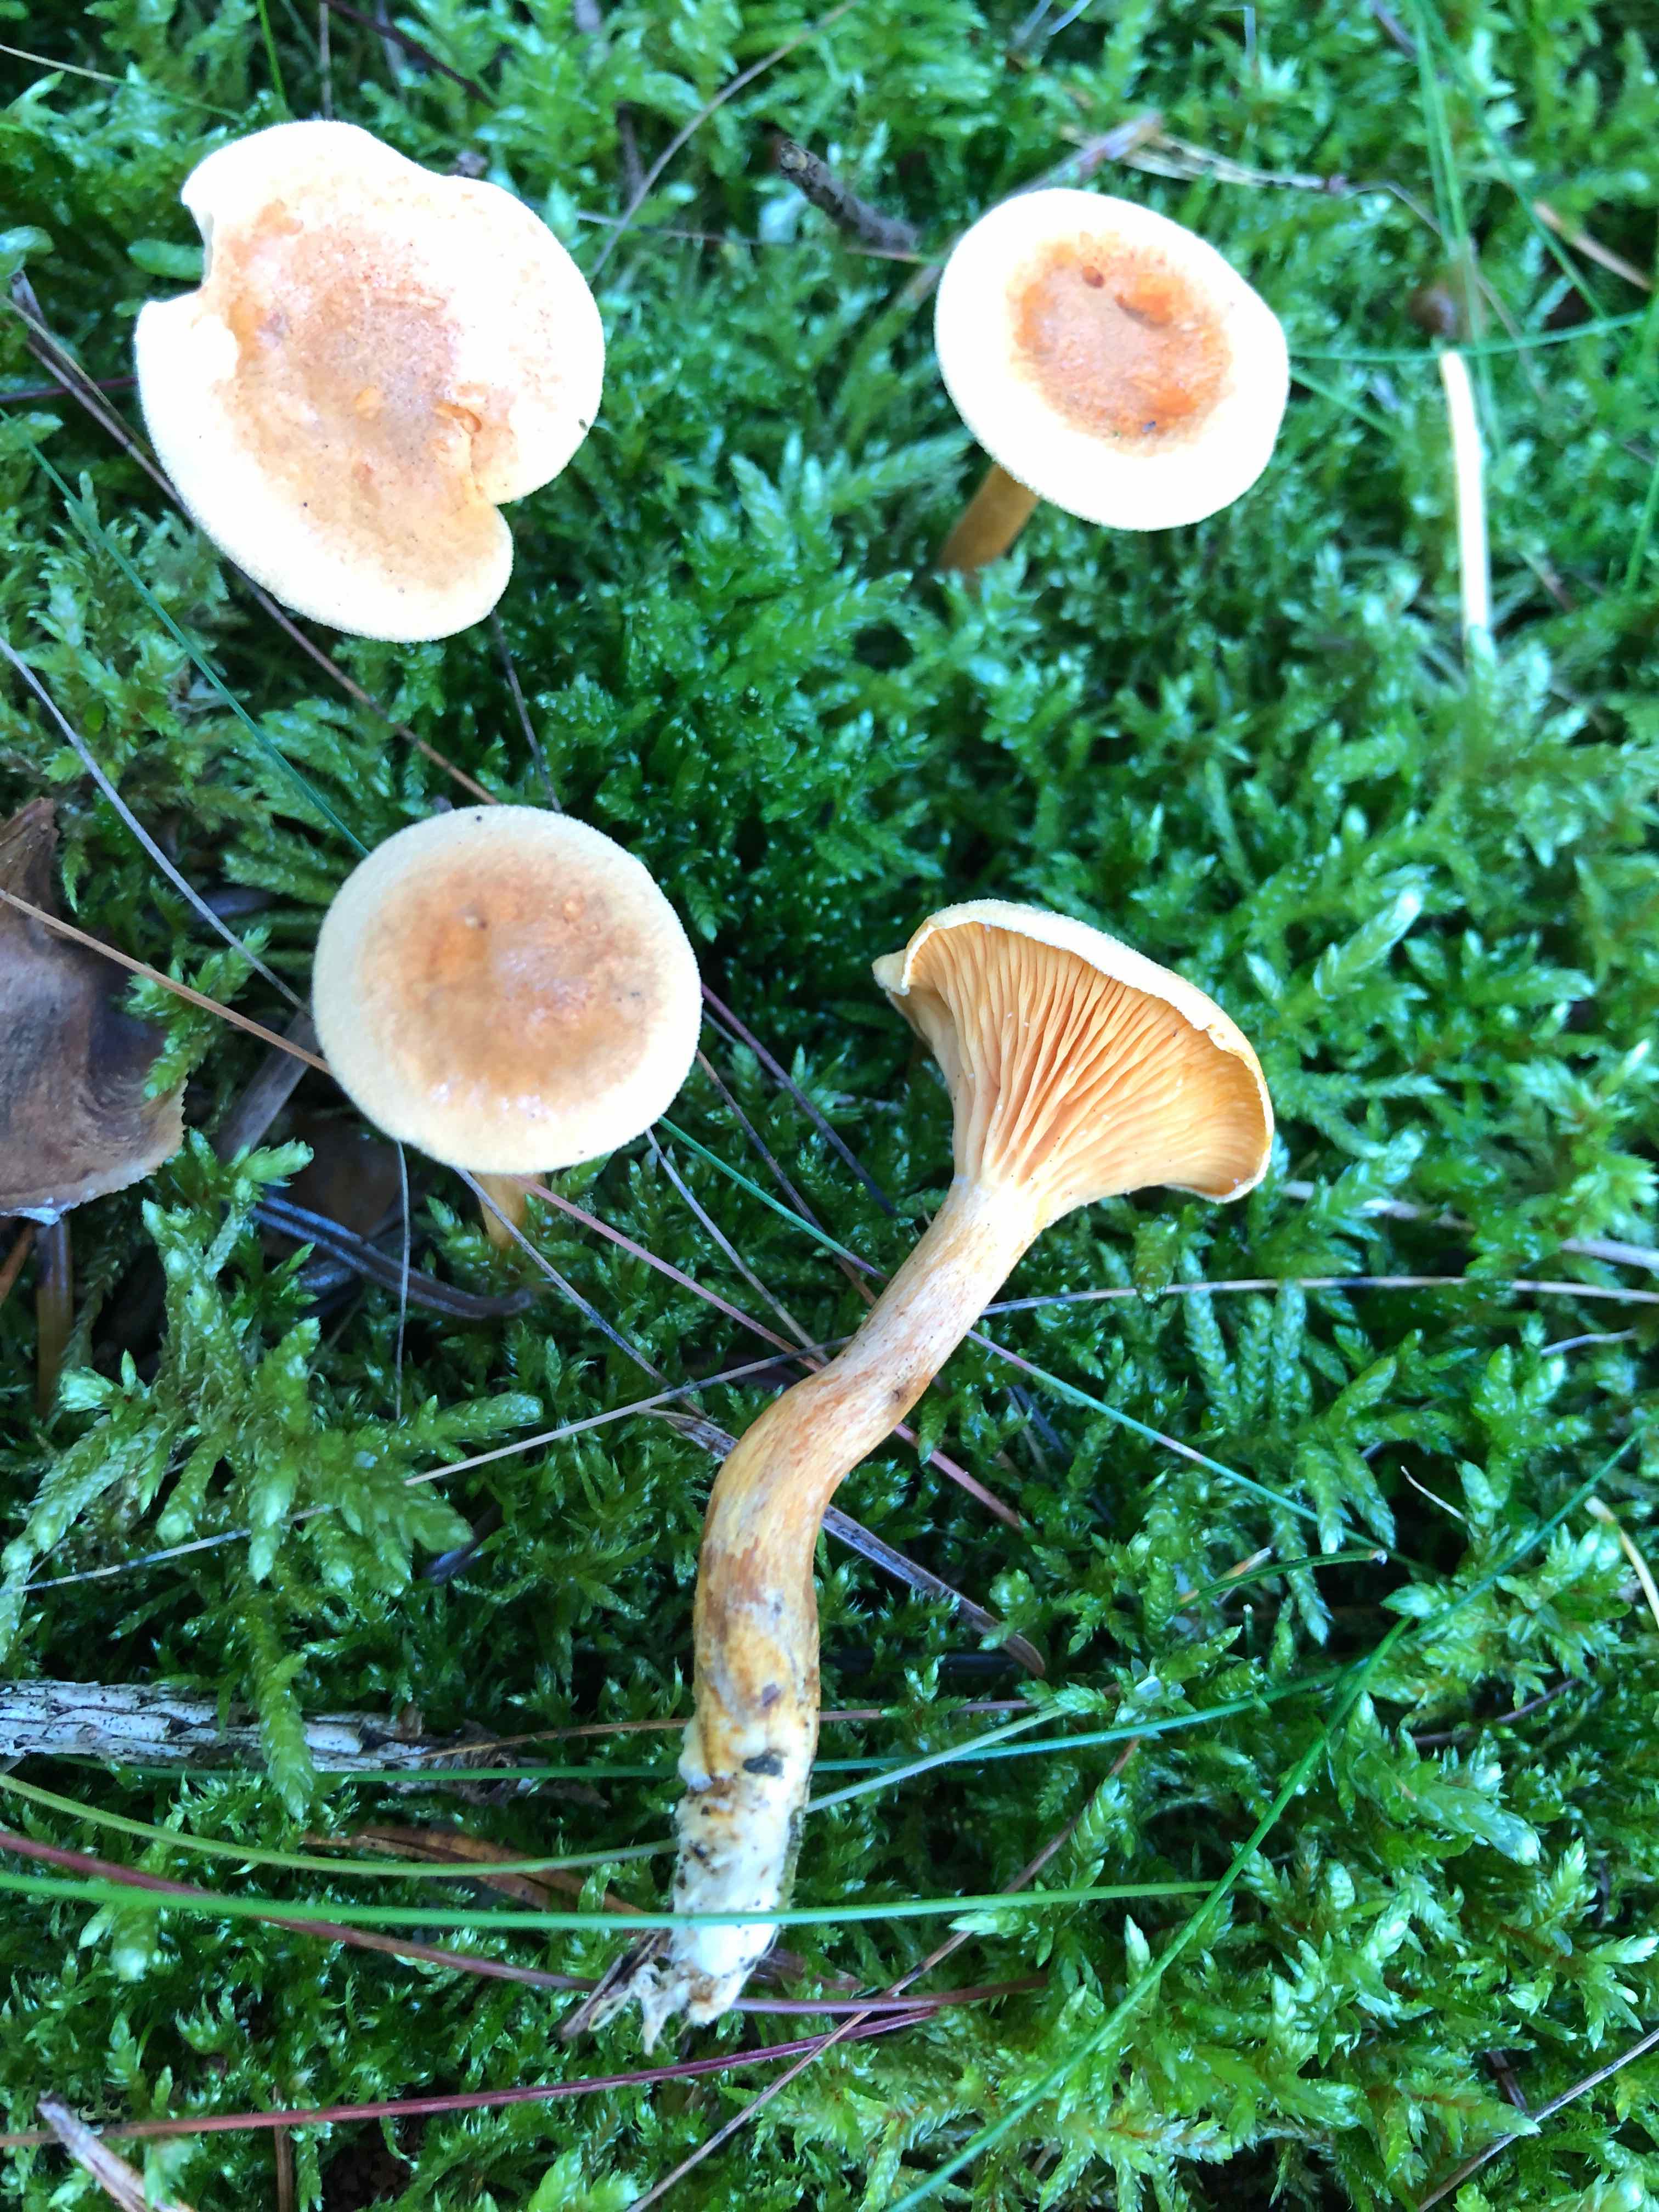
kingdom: Fungi
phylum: Basidiomycota
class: Agaricomycetes
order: Boletales
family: Hygrophoropsidaceae
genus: Hygrophoropsis
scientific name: Hygrophoropsis aurantiaca
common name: almindelig orangekantarel
